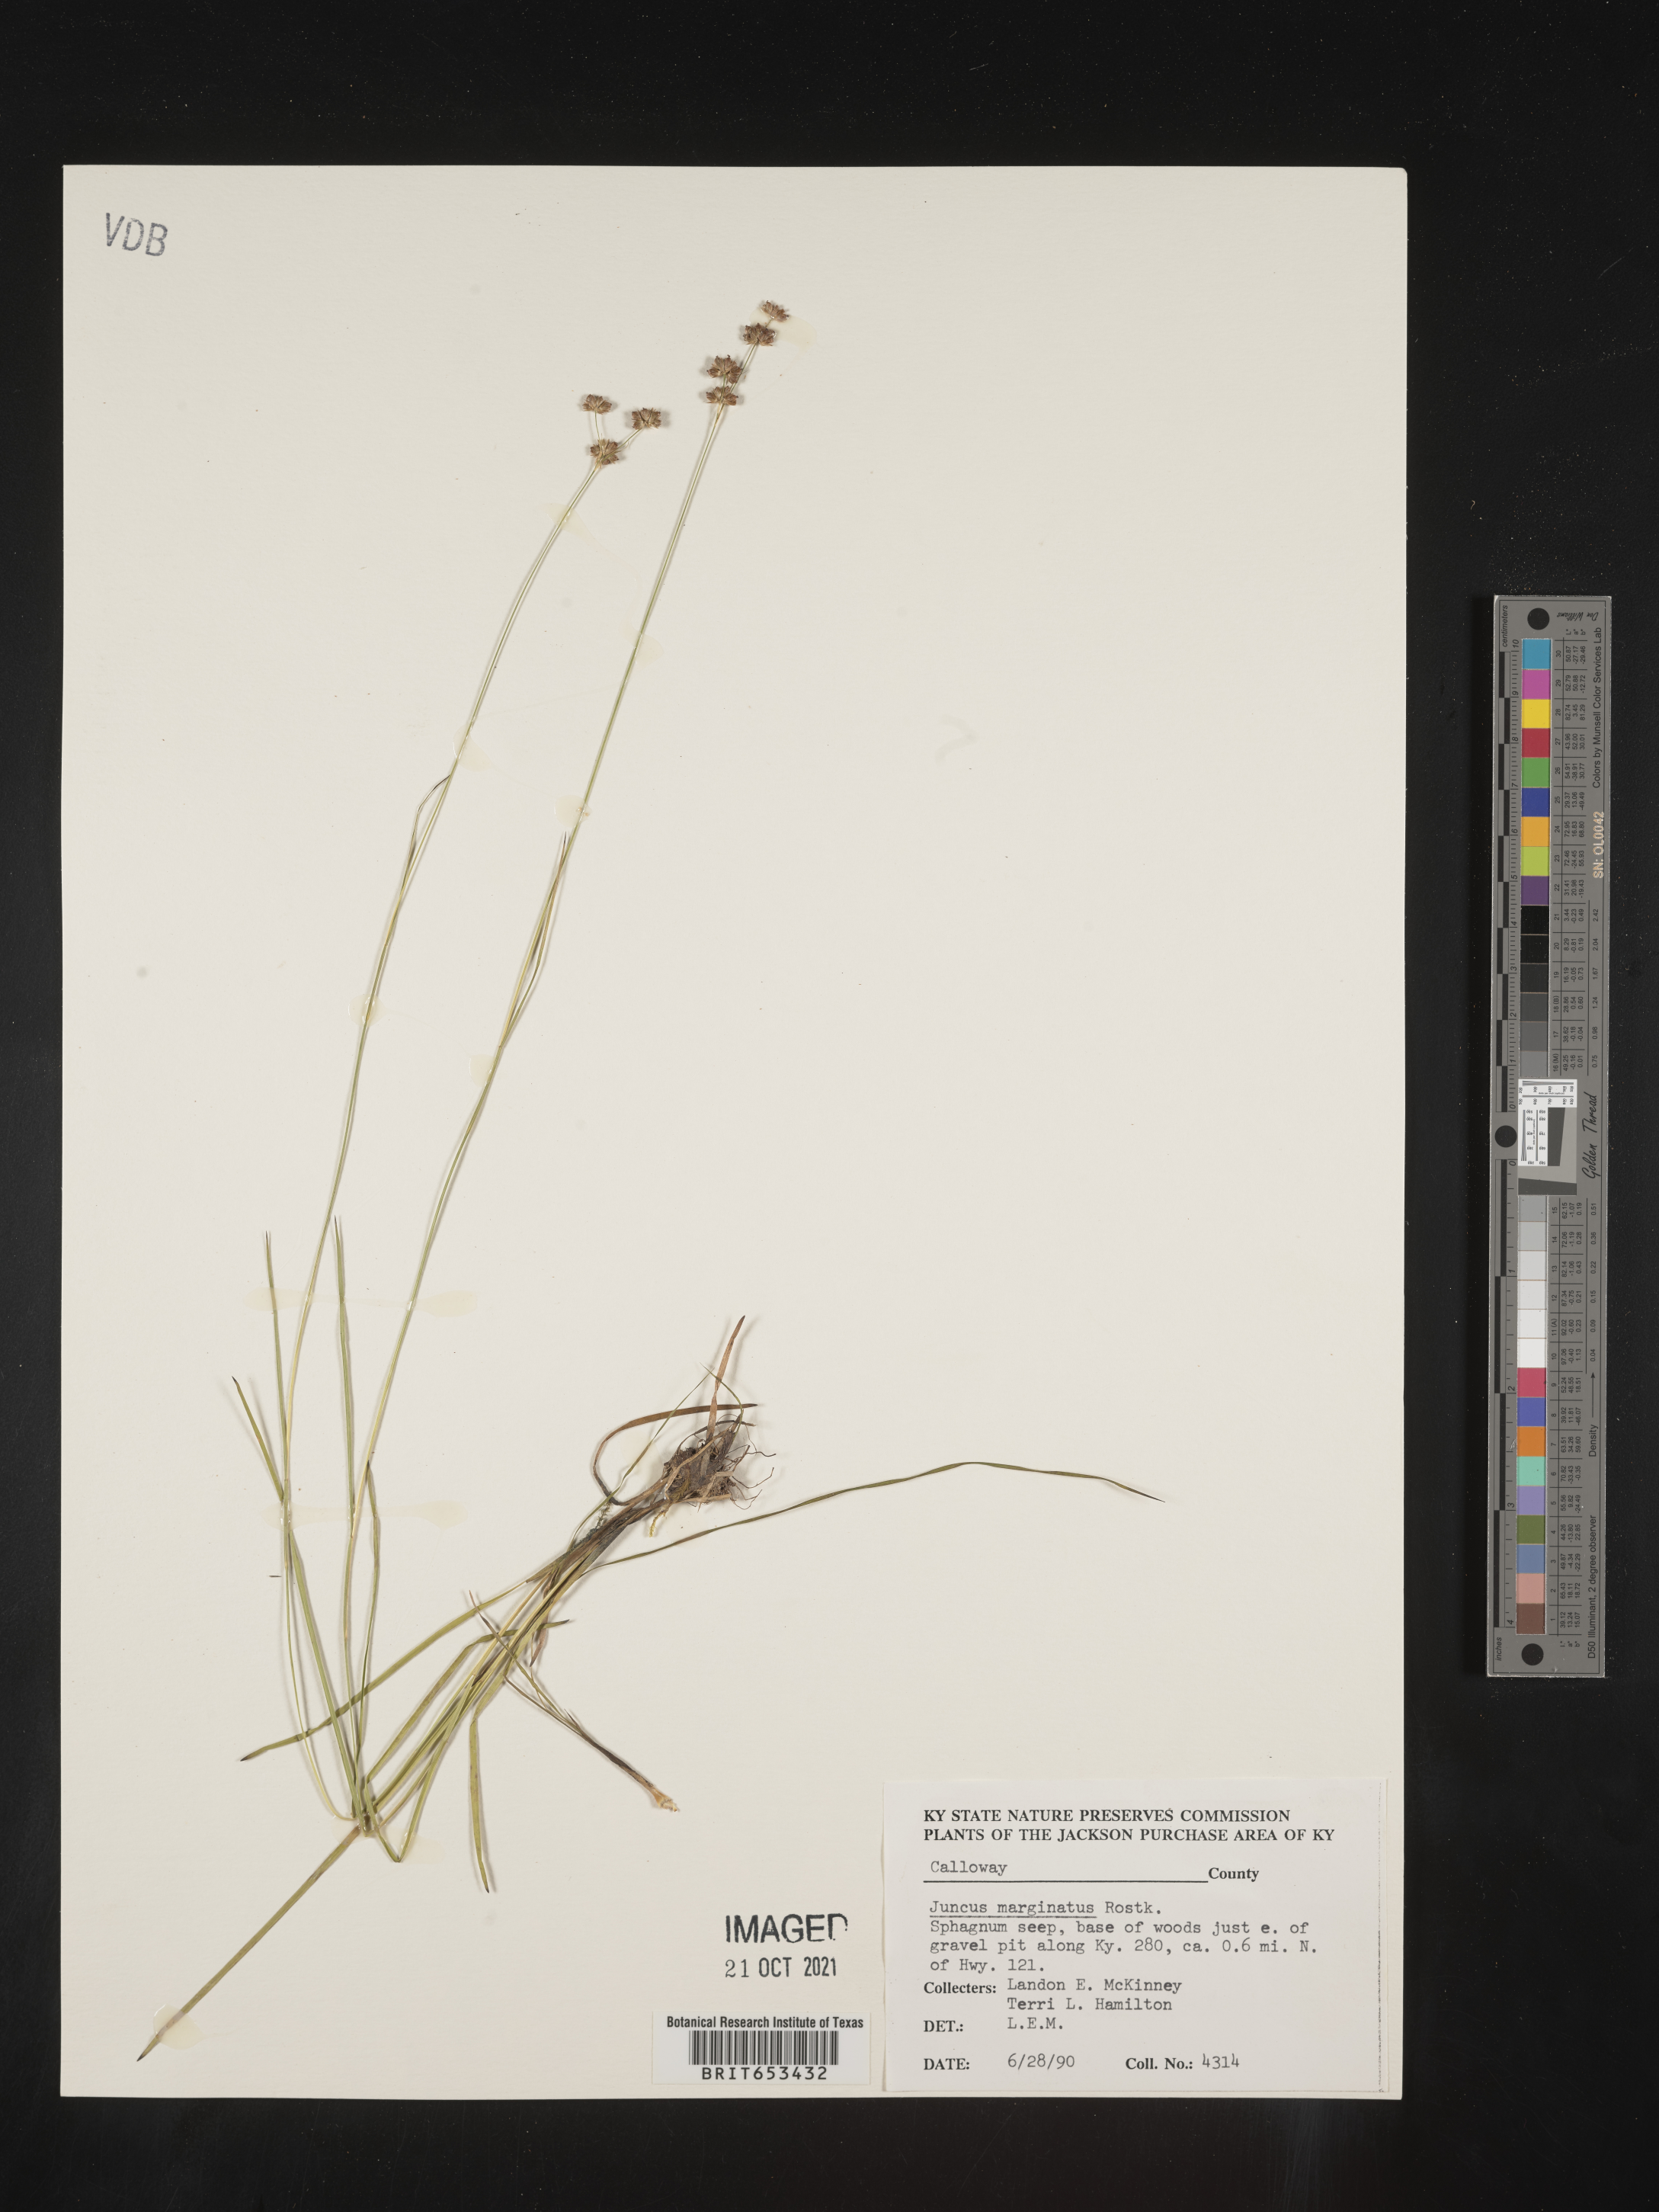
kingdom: Plantae
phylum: Tracheophyta
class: Liliopsida
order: Poales
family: Juncaceae
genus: Juncus
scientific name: Juncus marginatus
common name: Grass-leaf rush
